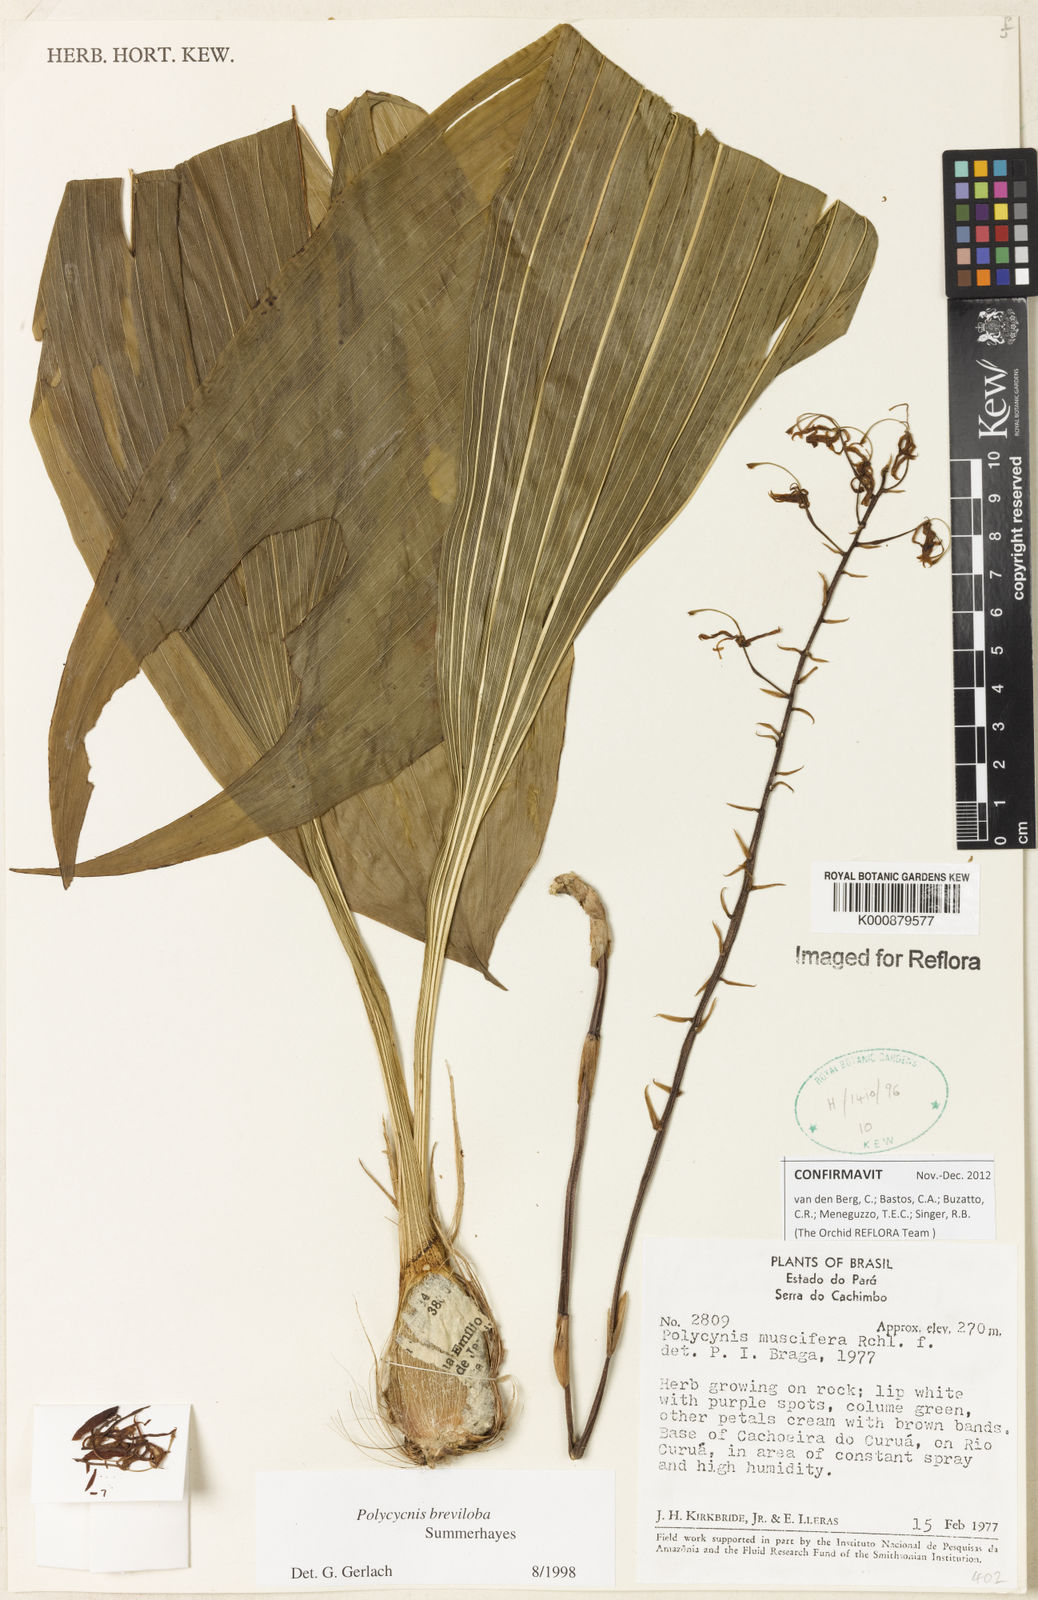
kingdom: Plantae
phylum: Tracheophyta
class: Liliopsida
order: Asparagales
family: Orchidaceae
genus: Lueckelia
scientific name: Lueckelia breviloba
